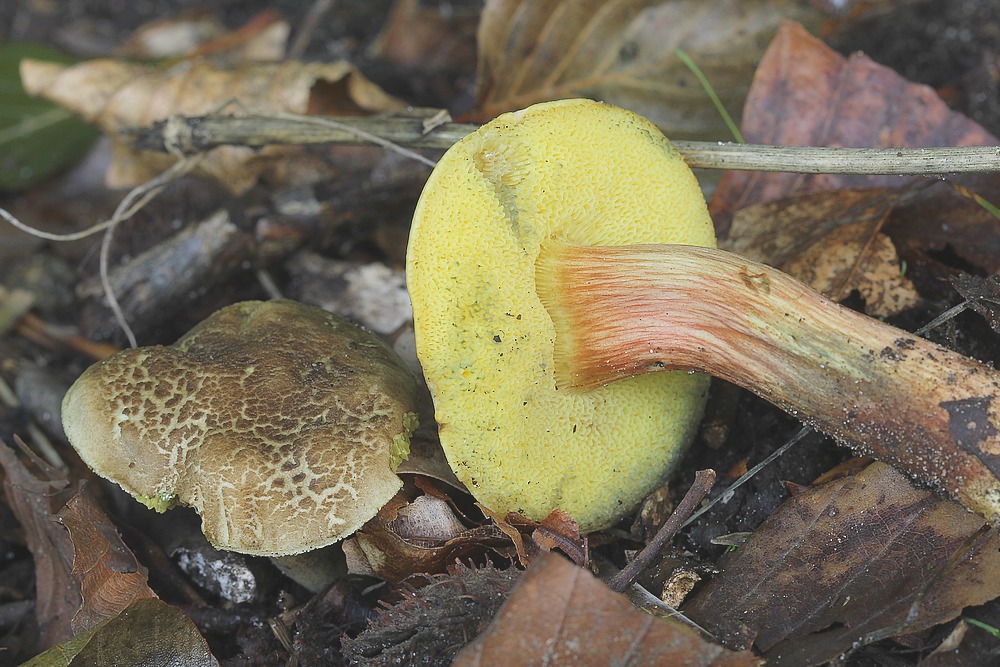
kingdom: Fungi
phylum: Basidiomycota
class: Agaricomycetes
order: Boletales
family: Boletaceae
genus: Xerocomellus
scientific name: Xerocomellus chrysenteron
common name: rødsprukken rørhat
